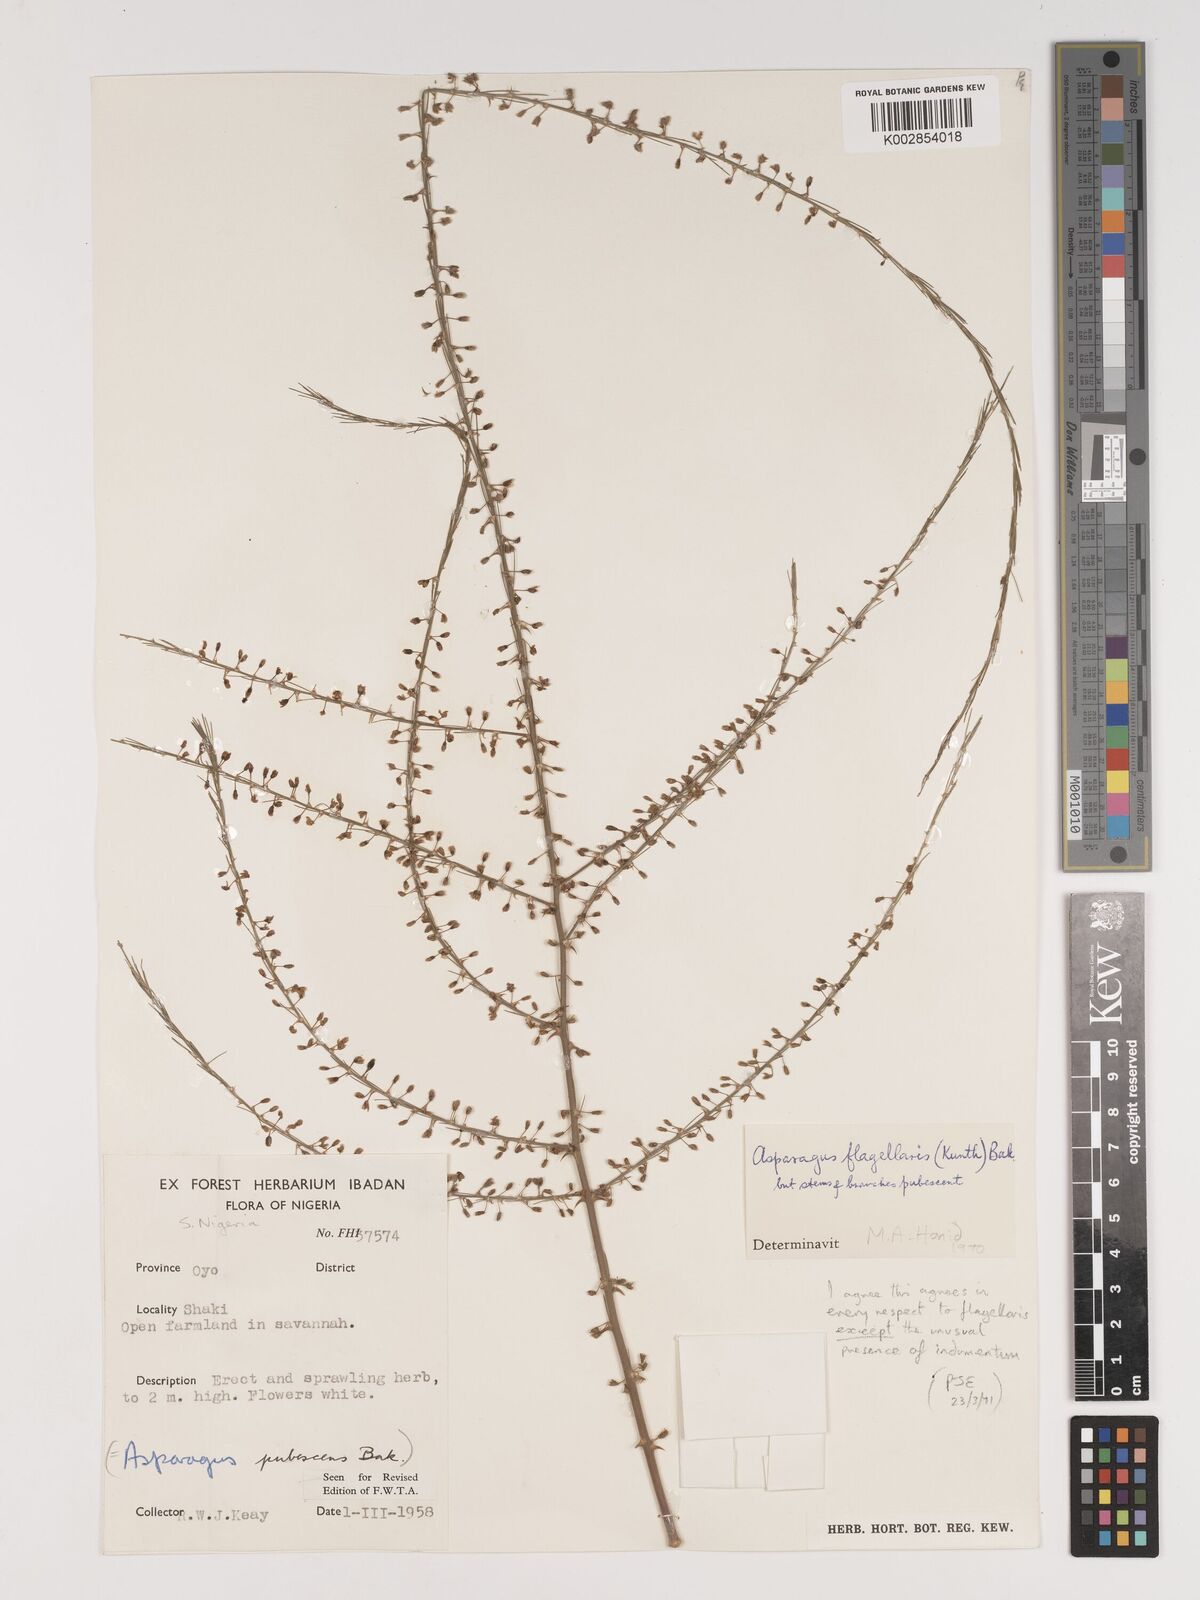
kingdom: Plantae
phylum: Tracheophyta
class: Liliopsida
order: Asparagales
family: Asparagaceae
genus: Asparagus
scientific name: Asparagus flagellaris
